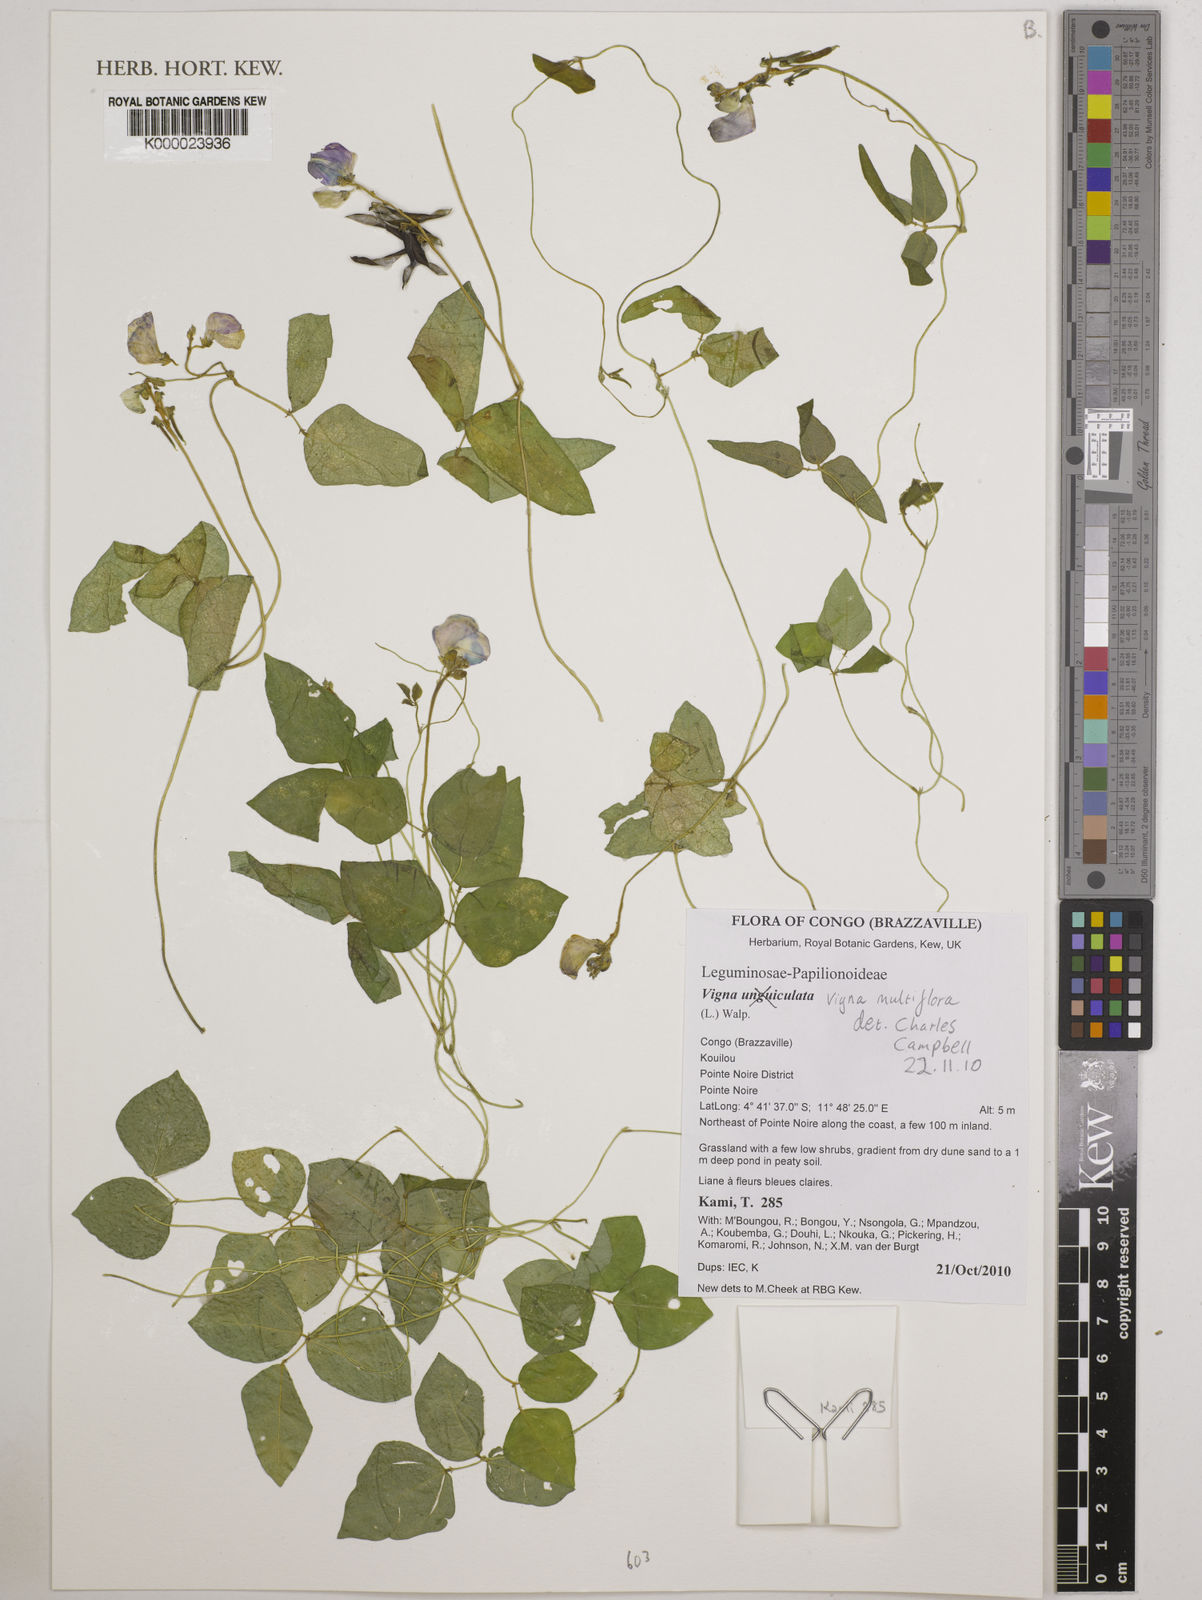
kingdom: Plantae
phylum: Tracheophyta
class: Magnoliopsida
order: Fabales
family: Fabaceae
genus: Vigna
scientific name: Vigna gracilis
